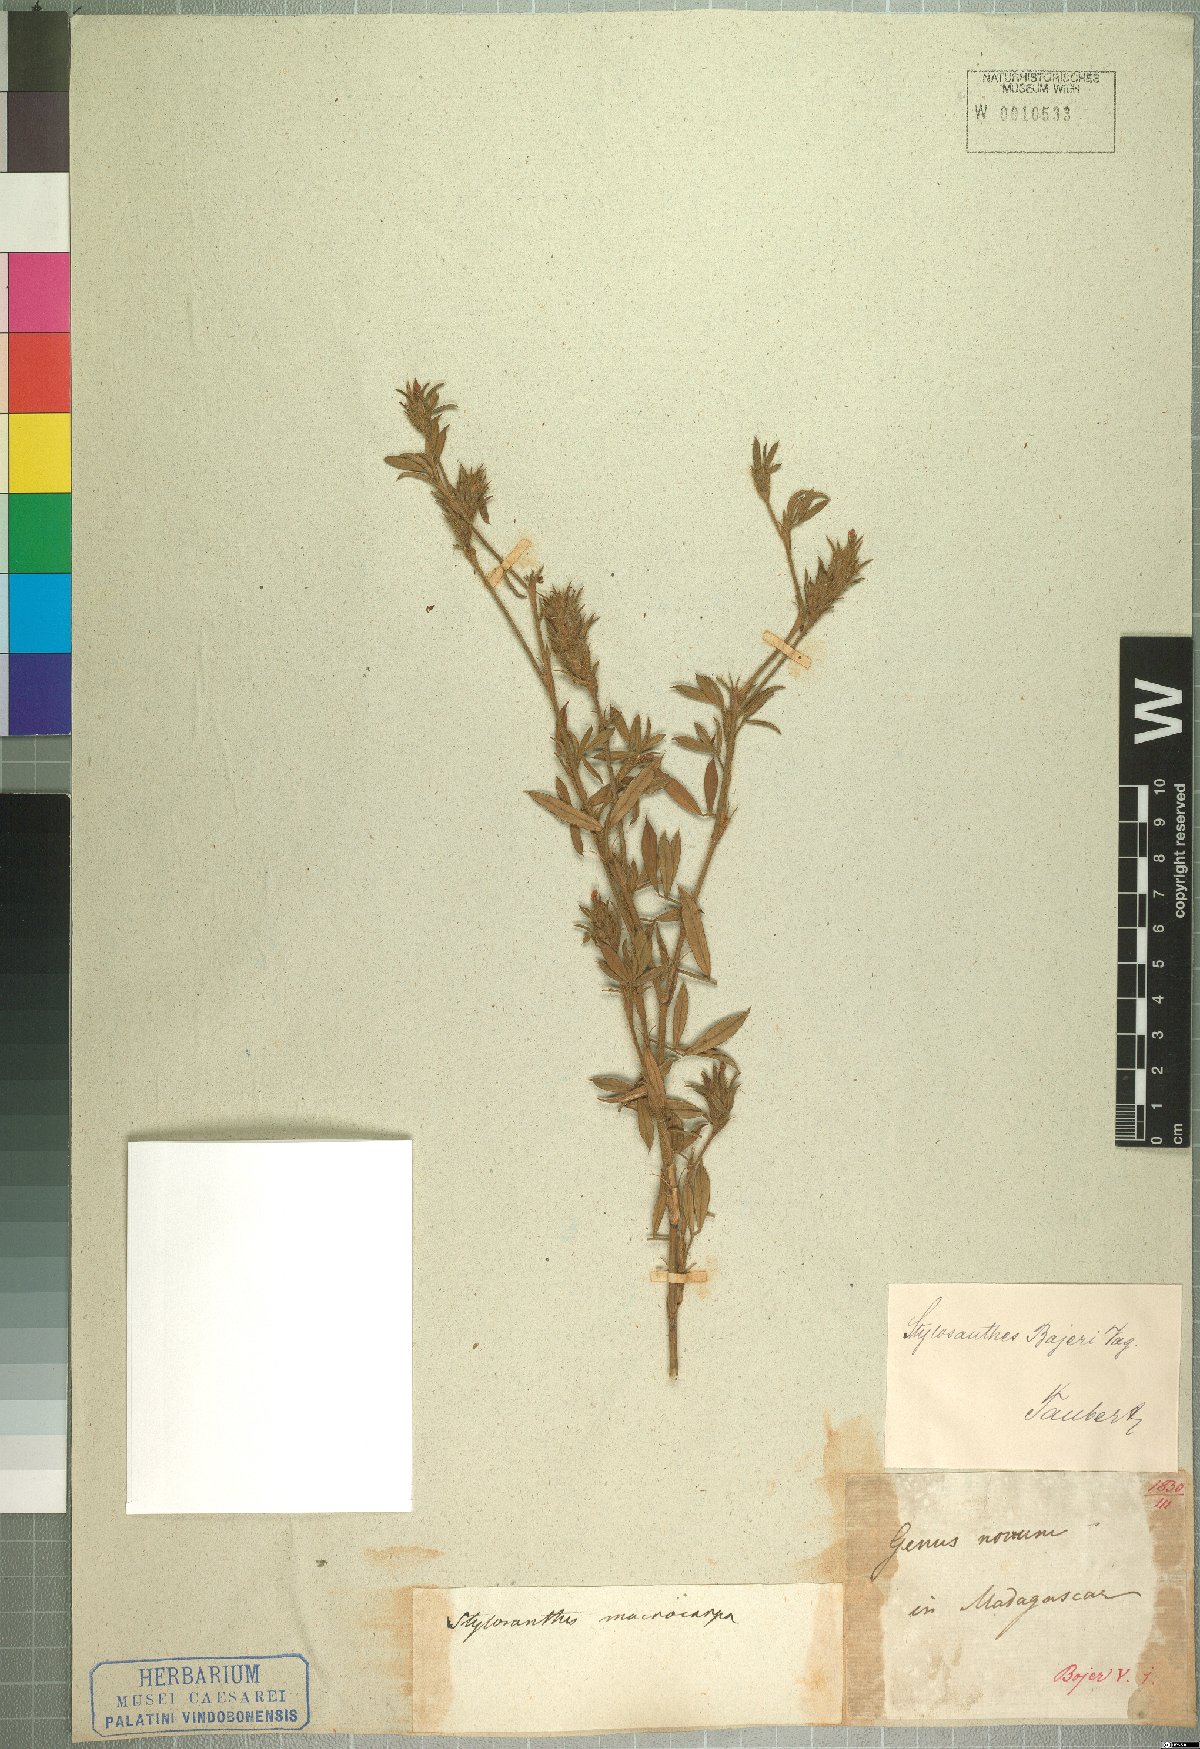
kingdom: Plantae
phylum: Tracheophyta
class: Magnoliopsida
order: Fabales
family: Fabaceae
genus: Stylosanthes
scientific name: Stylosanthes fruticosa
